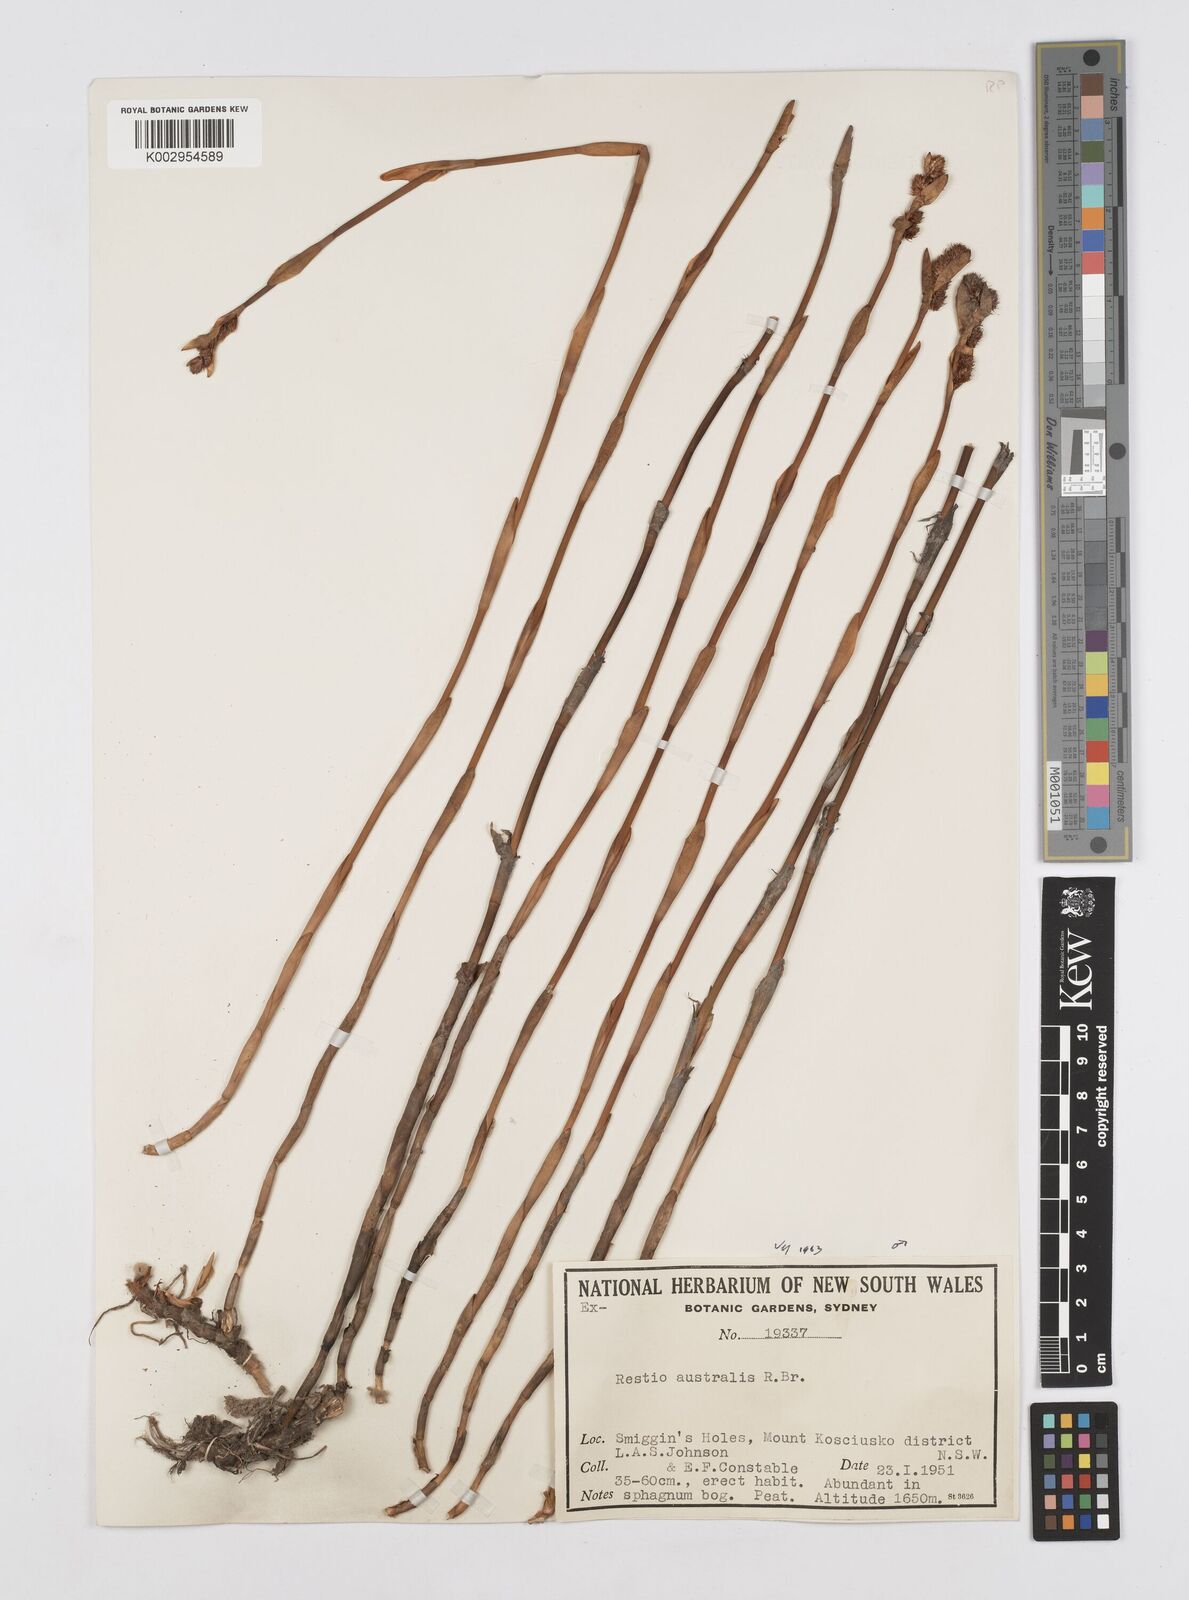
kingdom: Plantae
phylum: Tracheophyta
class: Liliopsida
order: Poales
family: Restionaceae
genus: Baloskion
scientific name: Baloskion australe
